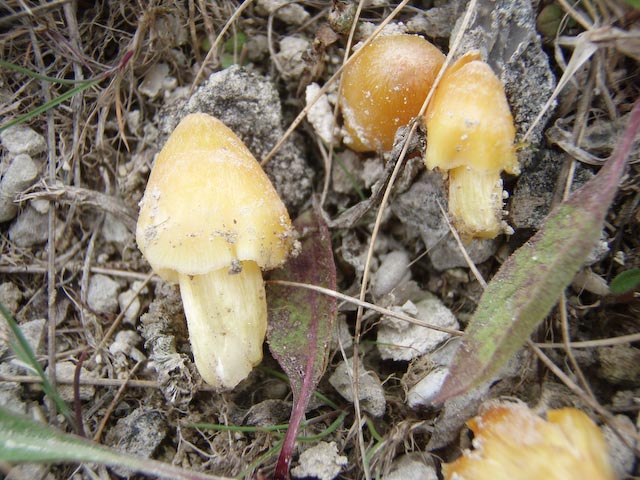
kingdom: Fungi
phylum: Basidiomycota
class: Agaricomycetes
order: Agaricales
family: Hygrophoraceae
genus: Hygrocybe
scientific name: Hygrocybe acutoconica
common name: spidspuklet vokshat
